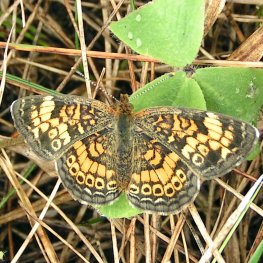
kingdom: Animalia
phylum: Arthropoda
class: Insecta
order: Lepidoptera
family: Nymphalidae
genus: Phyciodes
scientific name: Phyciodes tharos
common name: Northern Crescent
